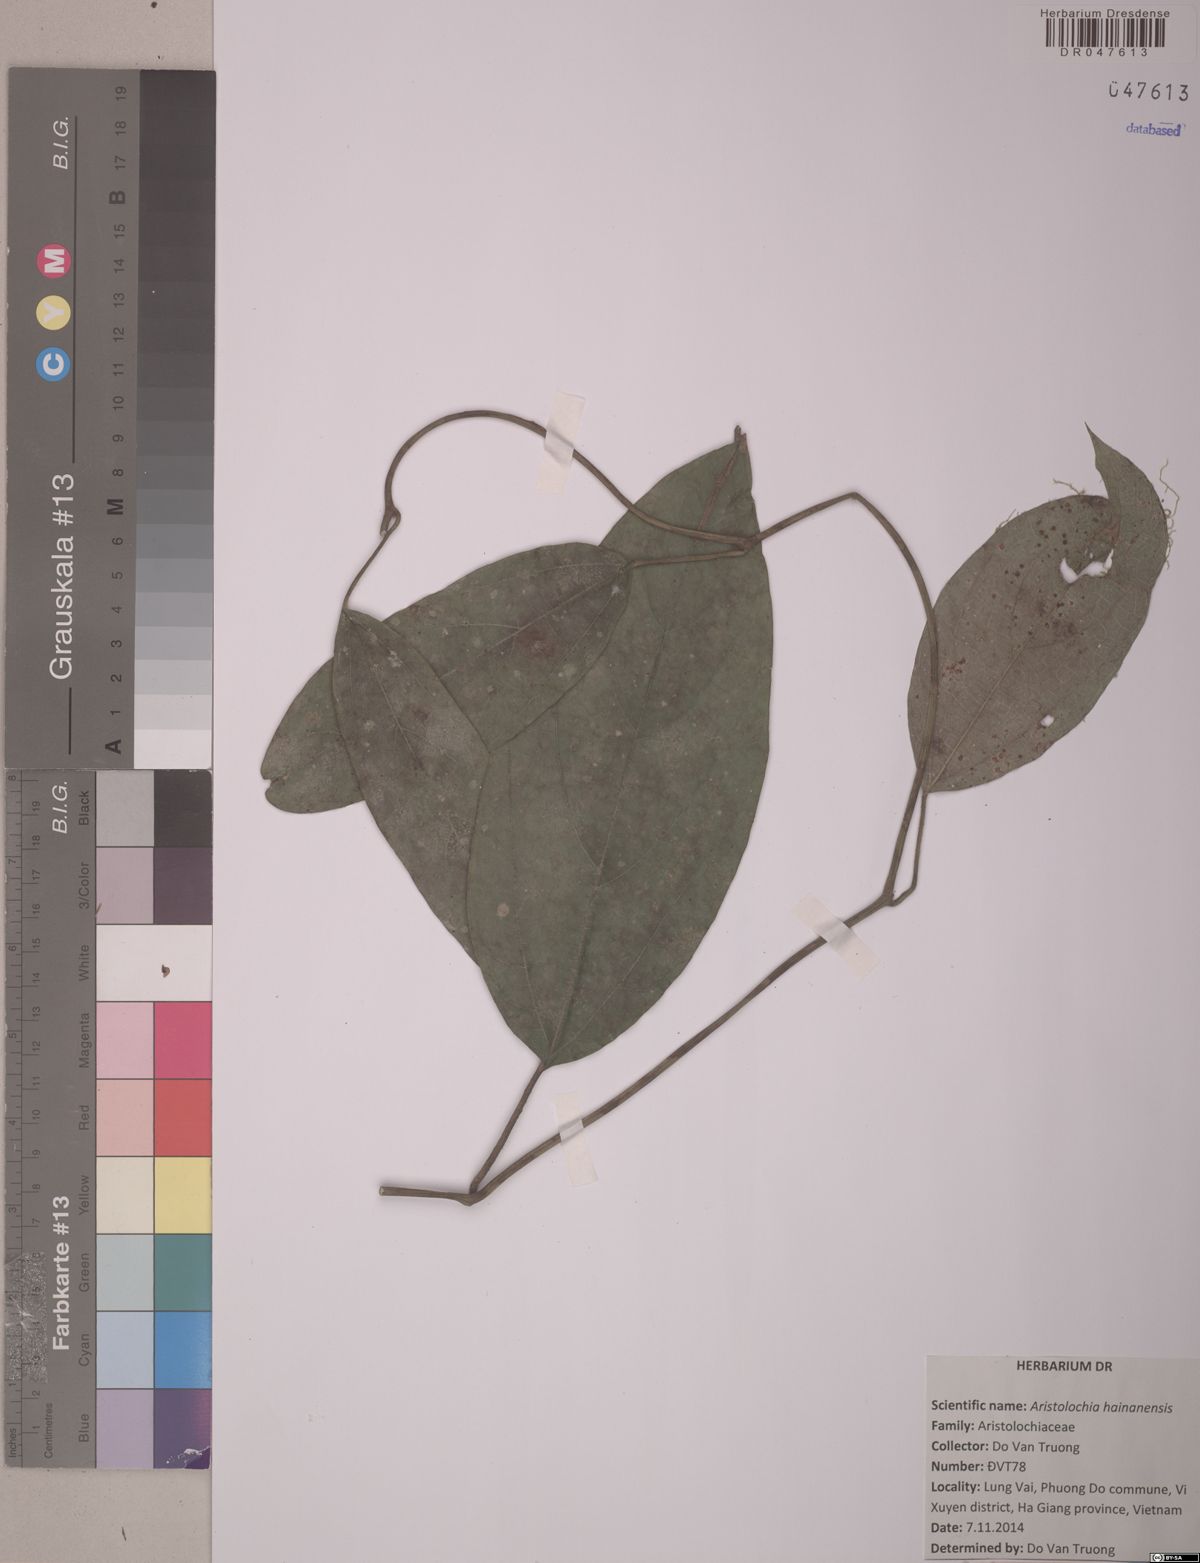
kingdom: Plantae
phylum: Tracheophyta
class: Magnoliopsida
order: Piperales
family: Aristolochiaceae
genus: Isotrema
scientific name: Isotrema hainanense
